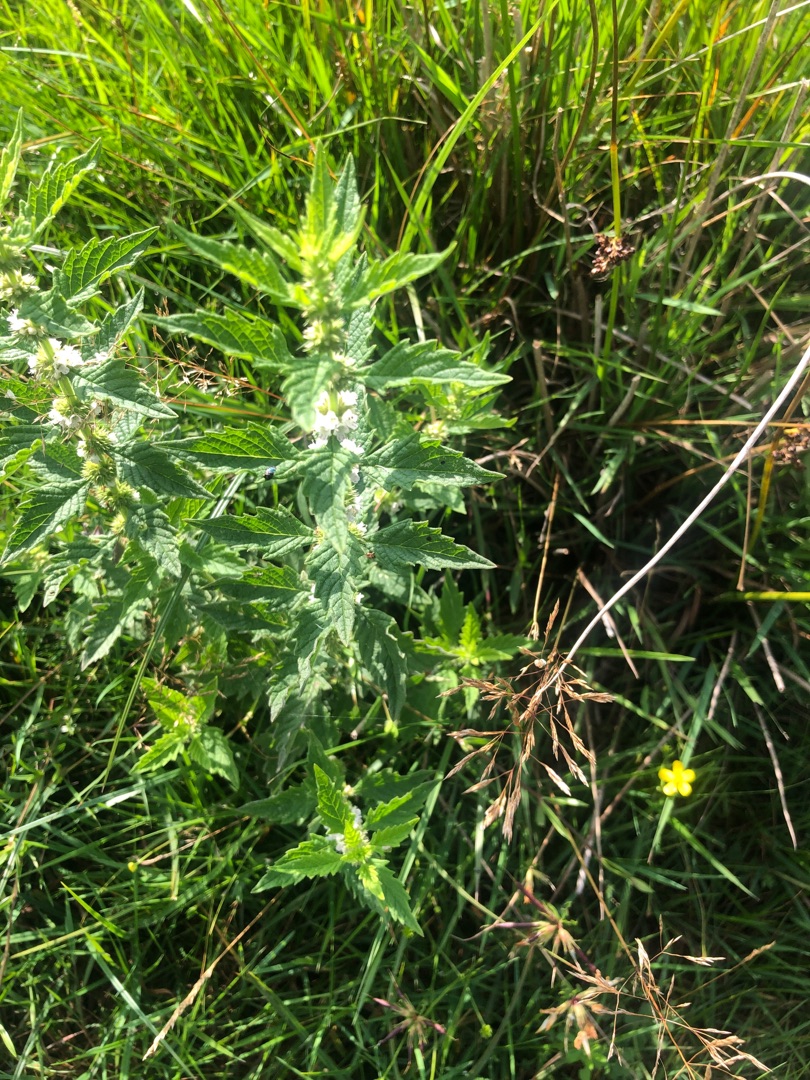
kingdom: Plantae
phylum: Tracheophyta
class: Magnoliopsida
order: Lamiales
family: Lamiaceae
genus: Lycopus
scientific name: Lycopus europaeus
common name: Sværtevæld
